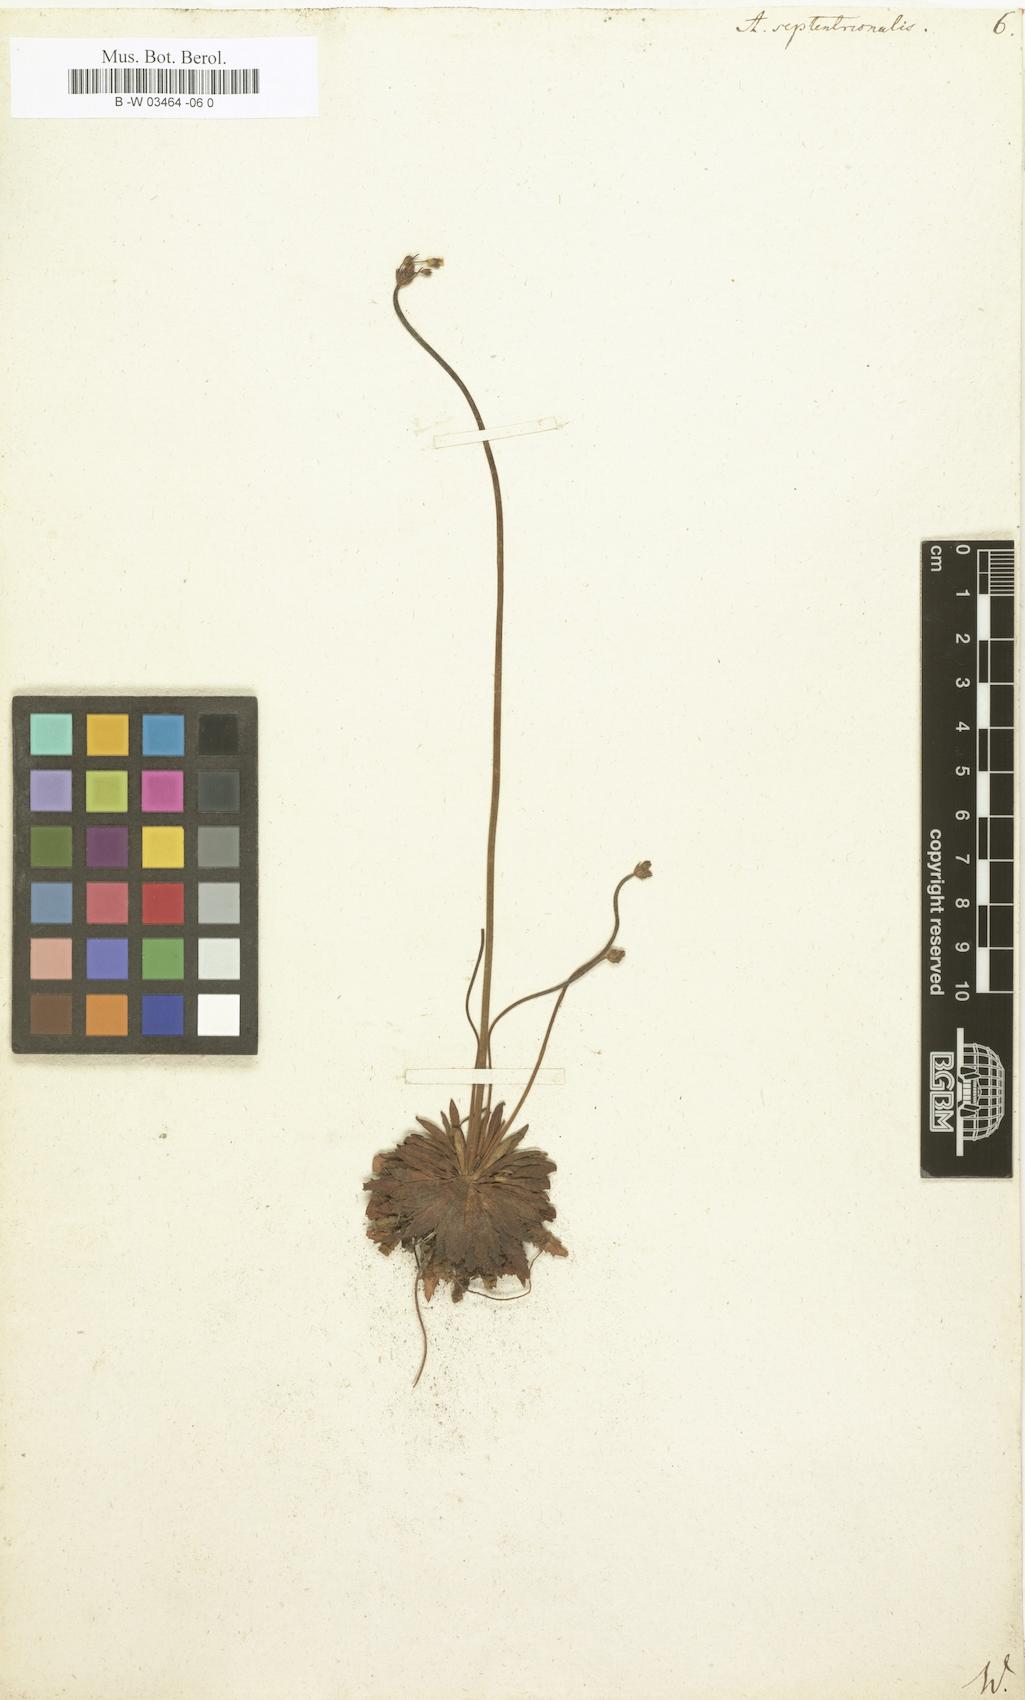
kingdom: Plantae
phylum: Tracheophyta
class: Magnoliopsida
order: Ericales
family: Primulaceae
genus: Androsace
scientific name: Androsace septentrionalis
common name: Hairy northern fairy-candelabra
